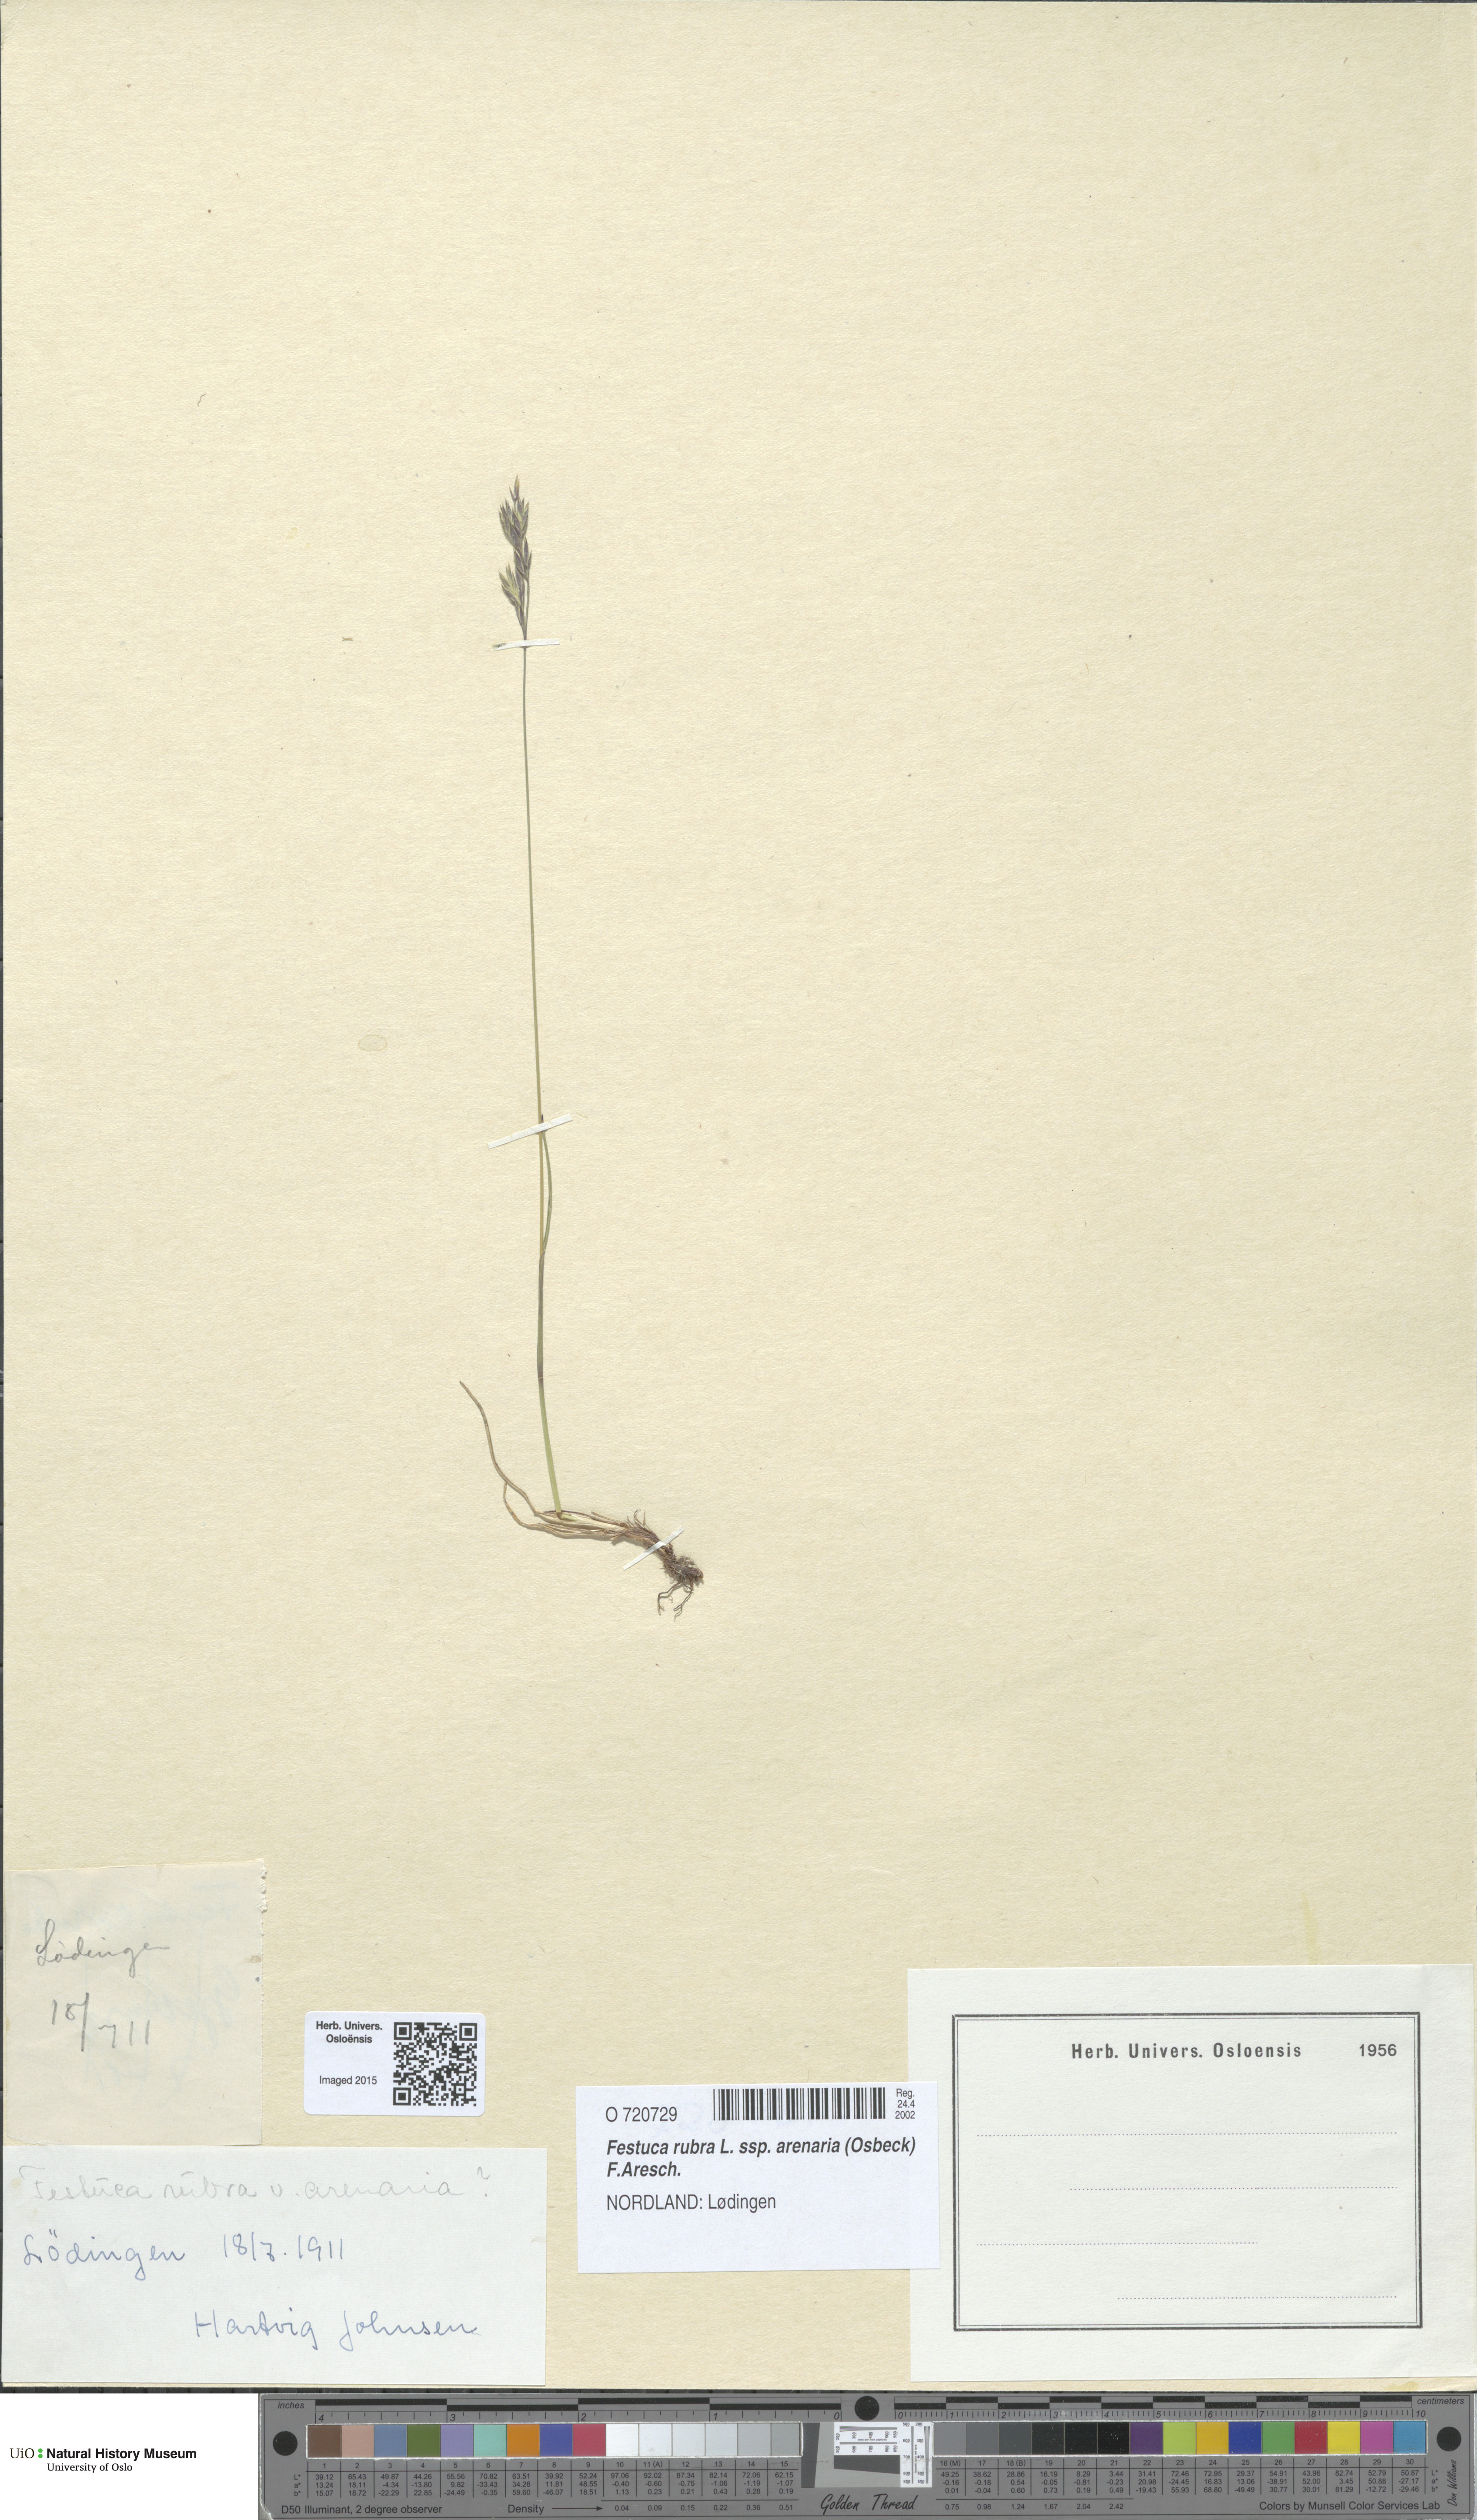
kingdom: Plantae
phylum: Tracheophyta
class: Liliopsida
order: Poales
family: Poaceae
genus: Festuca
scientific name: Festuca rubra
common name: Red fescue
